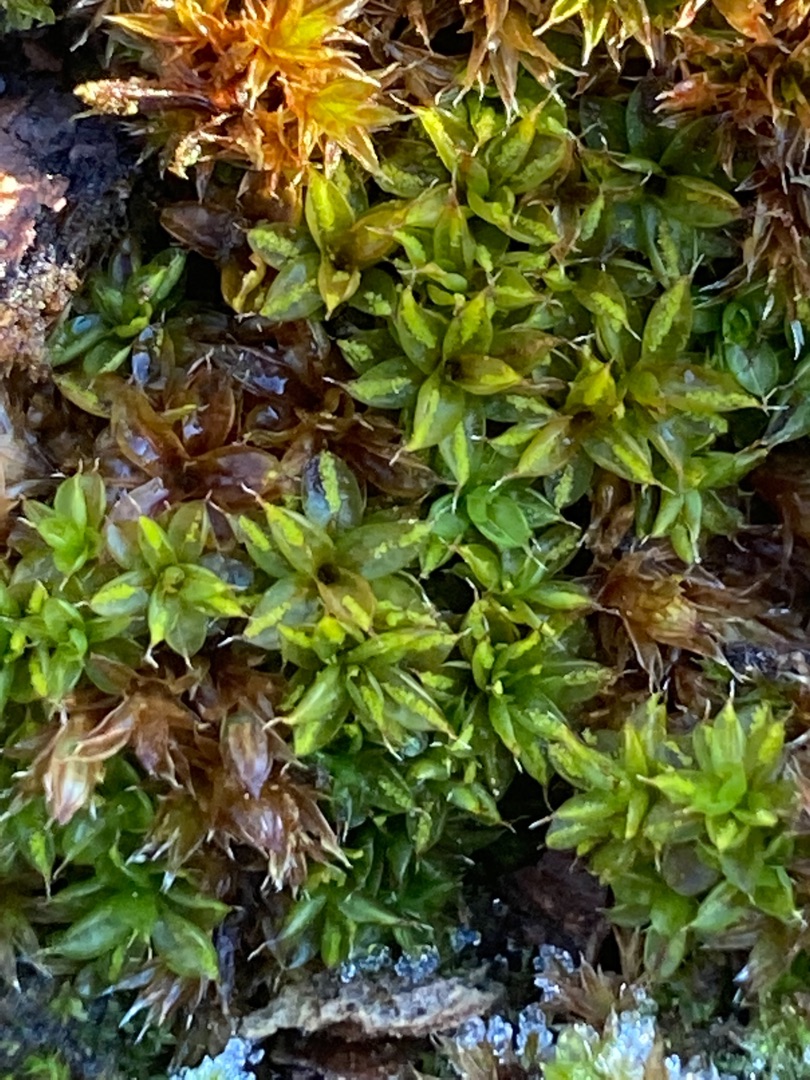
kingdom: Plantae
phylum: Bryophyta
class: Bryopsida
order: Pottiales
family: Pottiaceae
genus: Syntrichia
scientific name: Syntrichia papillosa
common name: Bark-hårstjerne
